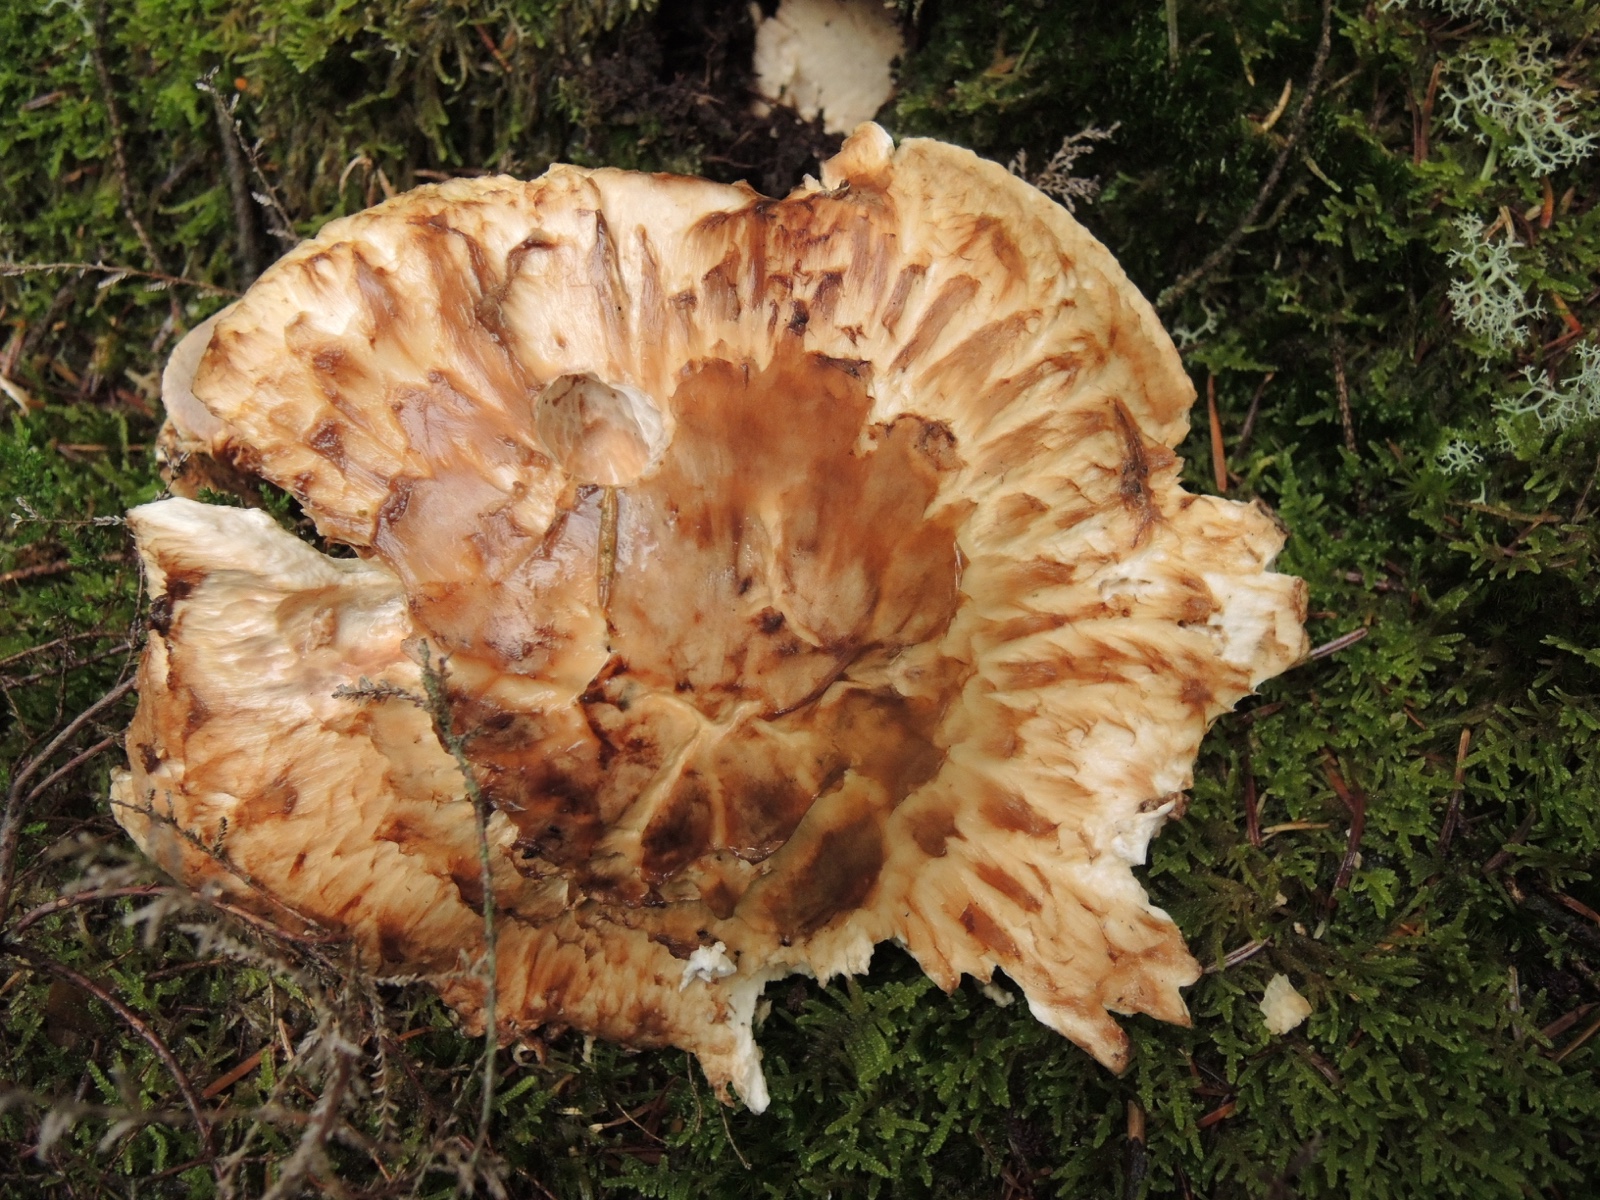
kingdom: Fungi
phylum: Basidiomycota
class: Agaricomycetes
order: Agaricales
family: Tricholomataceae
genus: Tricholoma
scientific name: Tricholoma matsutake
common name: duft-ridderhat
